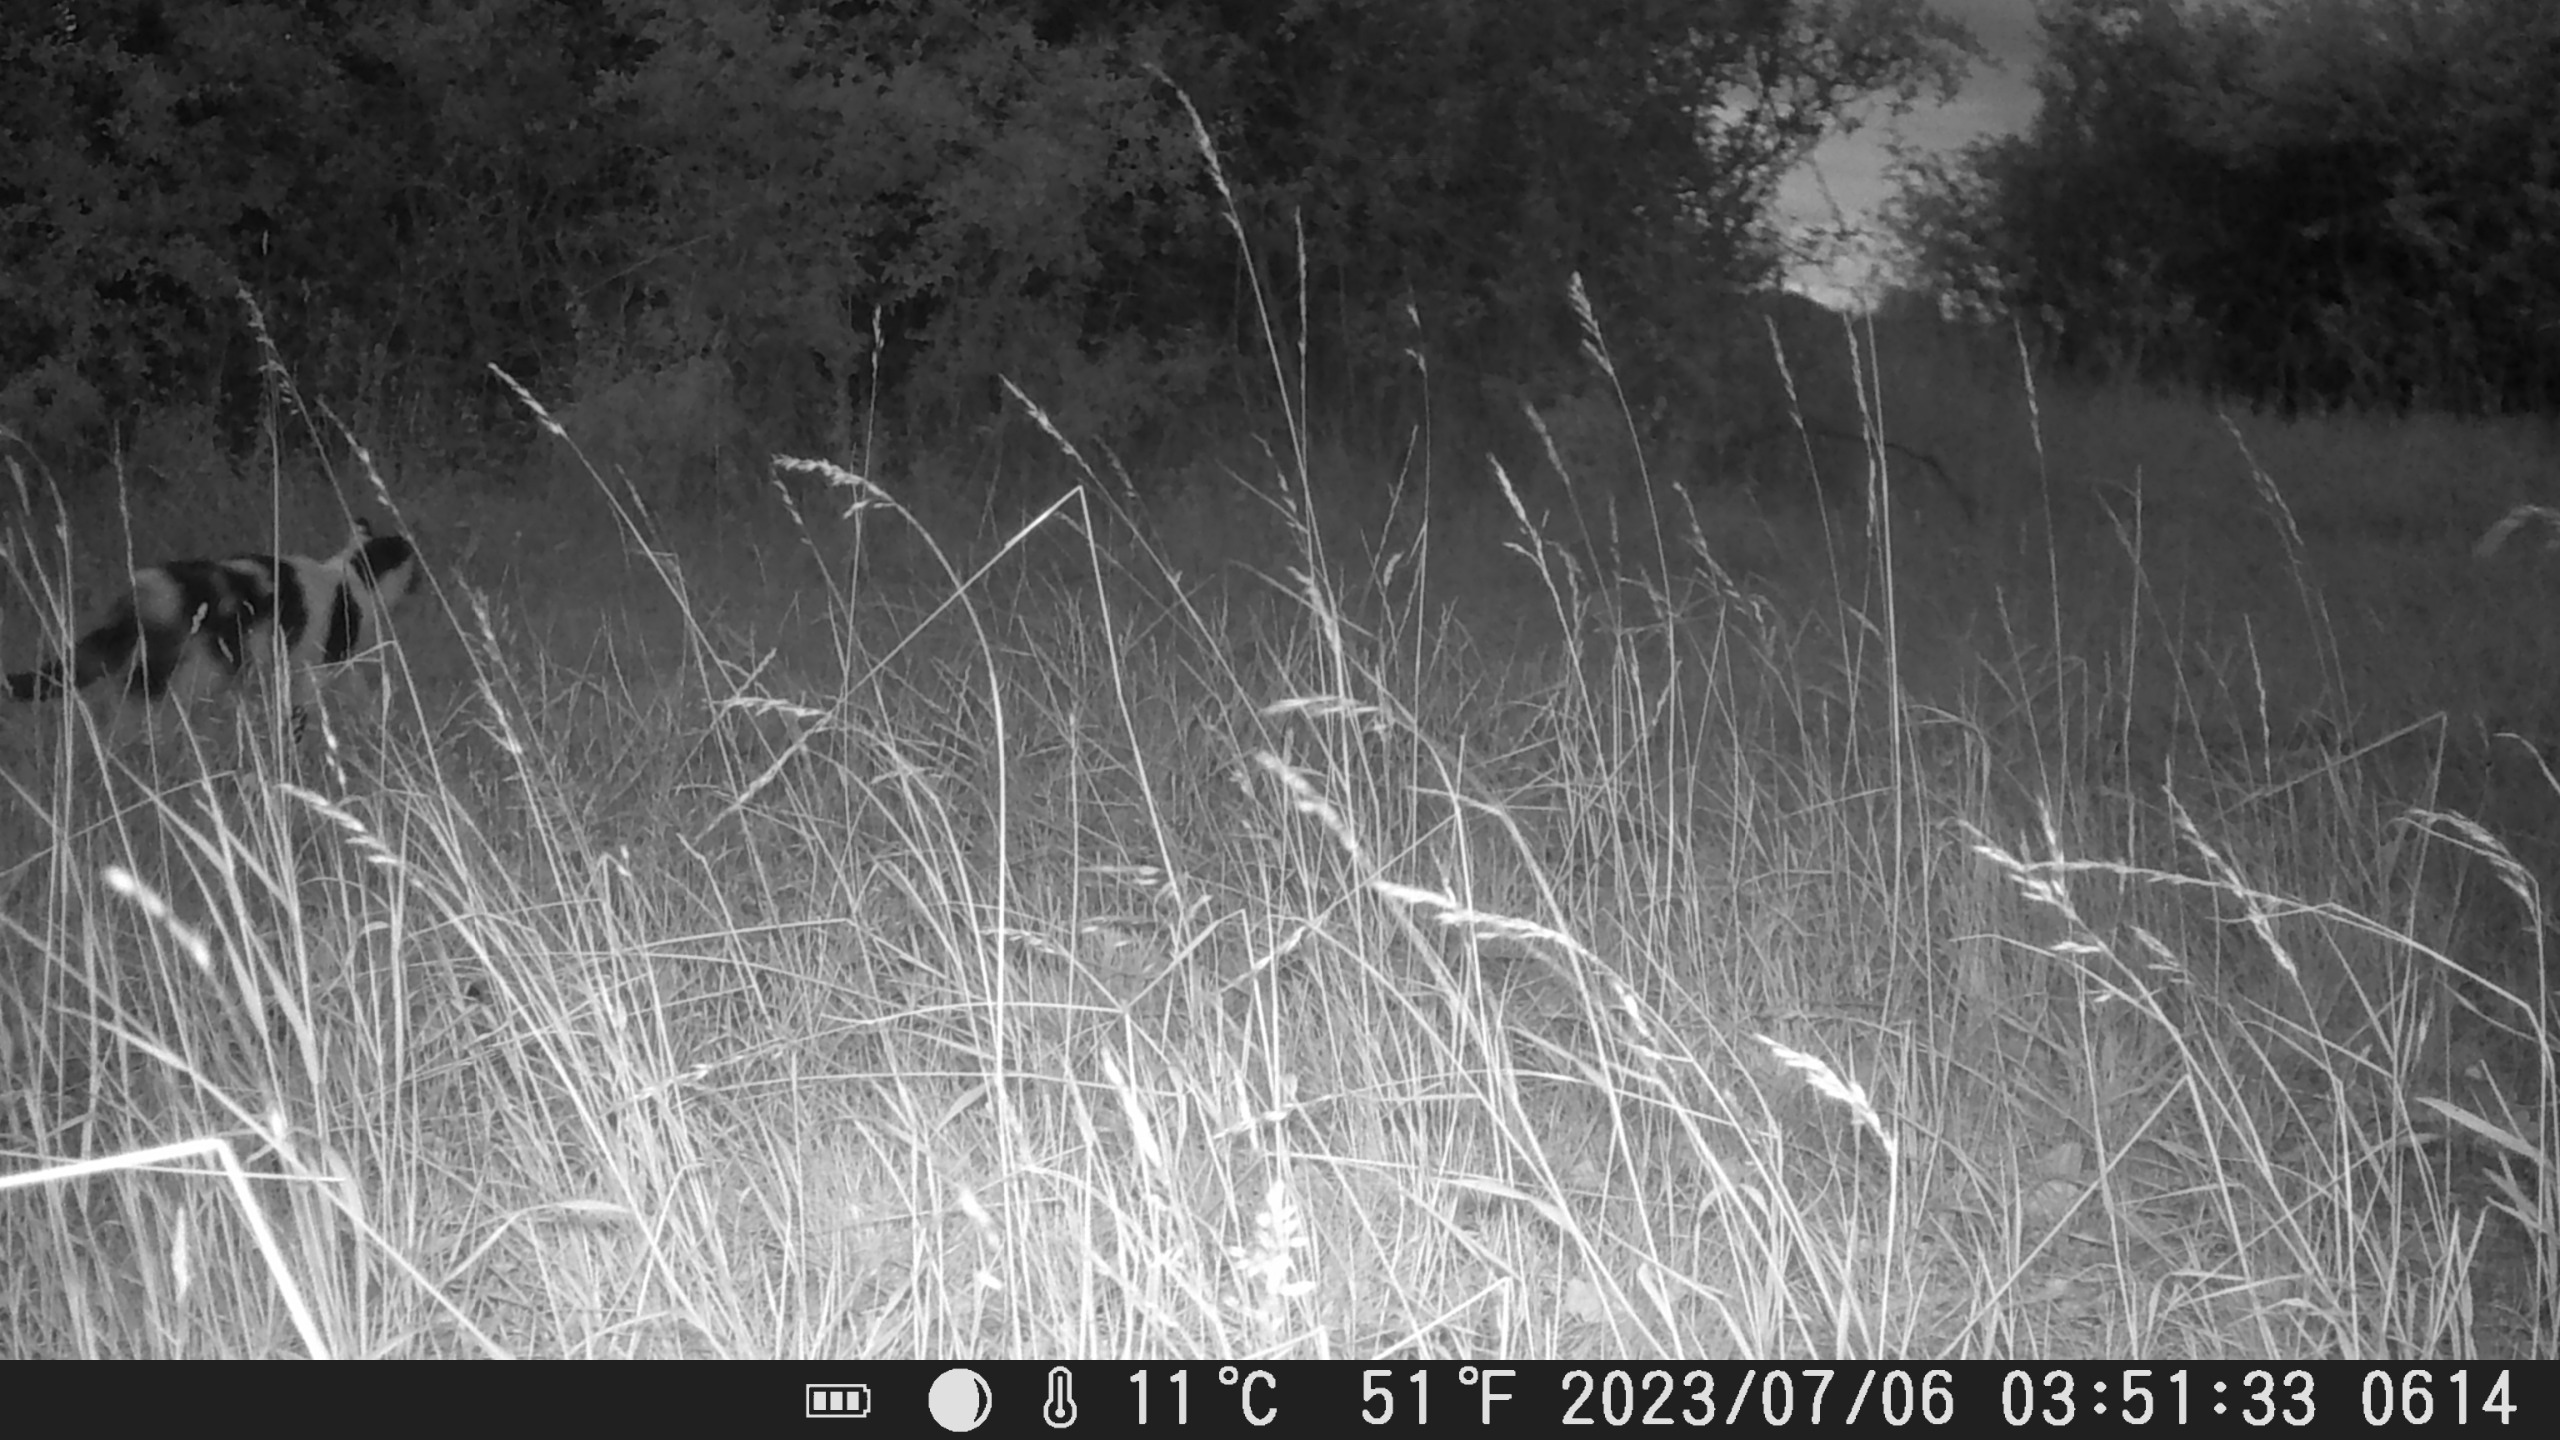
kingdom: Animalia
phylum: Chordata
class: Mammalia
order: Carnivora
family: Felidae
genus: Felis
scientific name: Felis catus
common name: Tamkat
